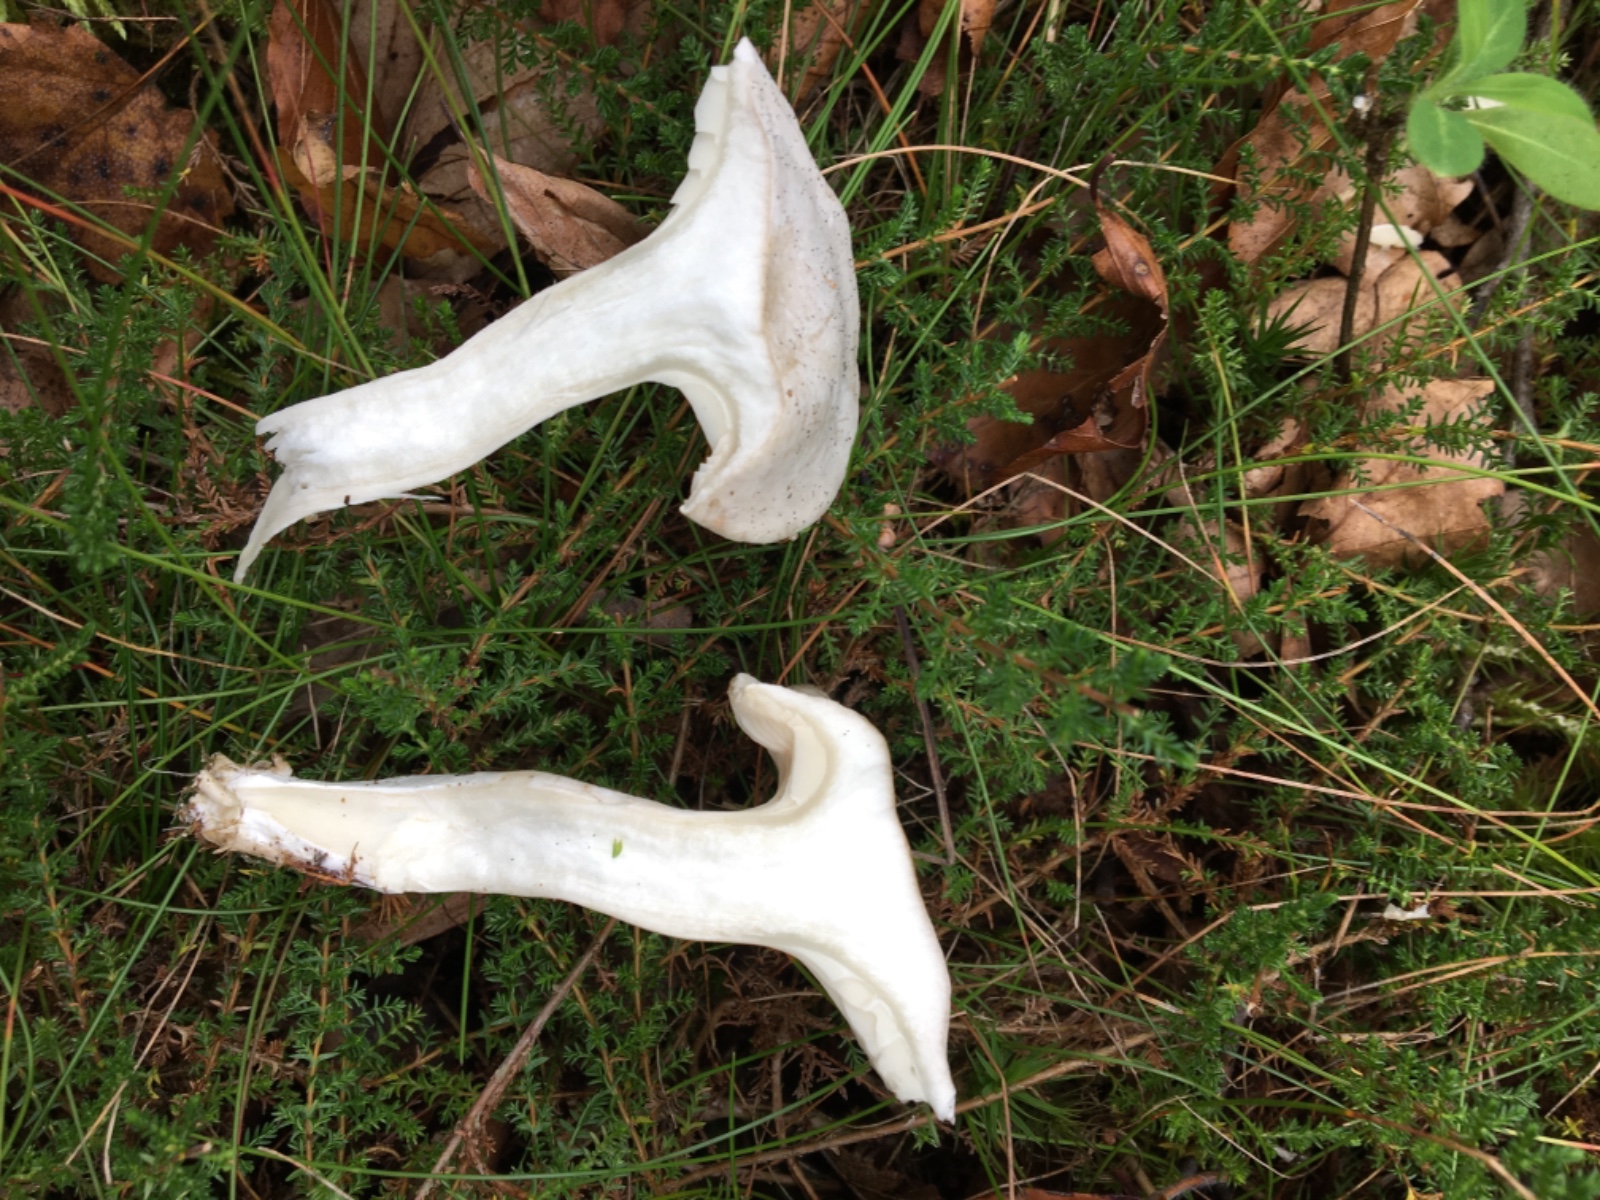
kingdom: Fungi
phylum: Basidiomycota
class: Agaricomycetes
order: Agaricales
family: Entolomataceae
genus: Clitopilus
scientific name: Clitopilus prunulus
